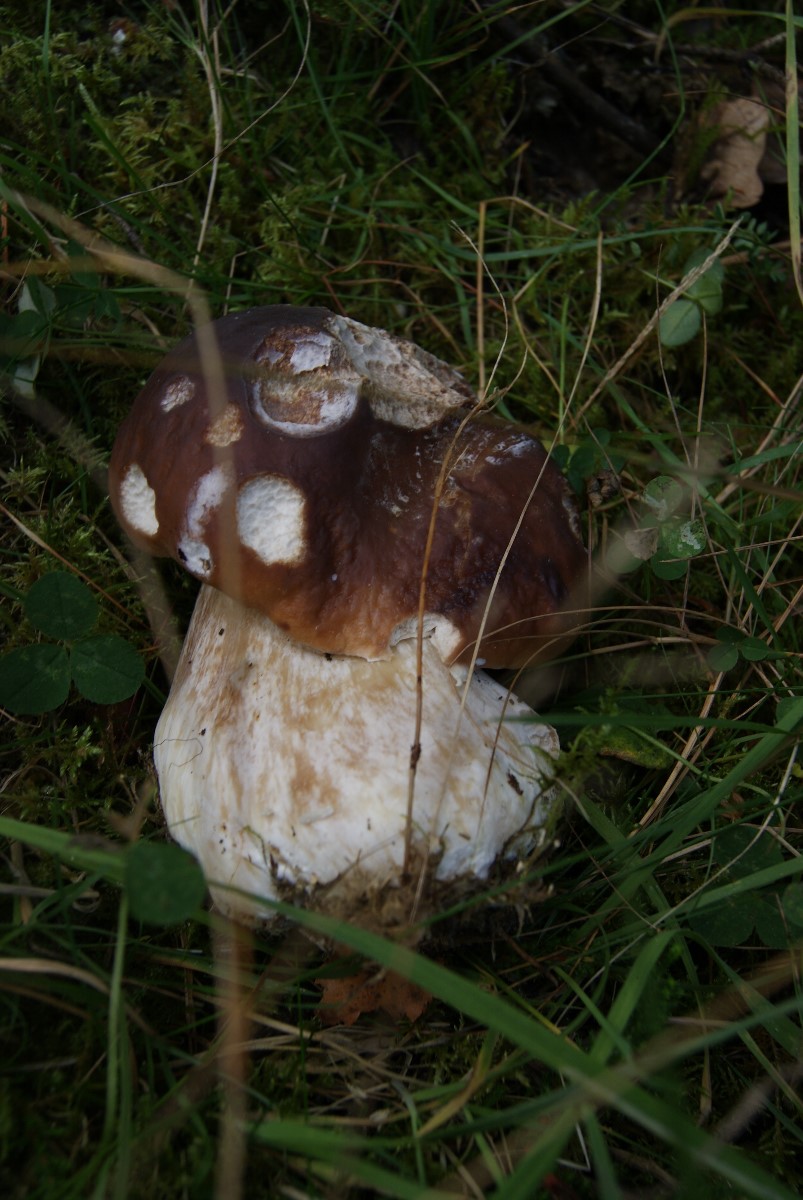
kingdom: Fungi
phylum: Basidiomycota
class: Agaricomycetes
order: Boletales
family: Boletaceae
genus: Boletus
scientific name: Boletus edulis
